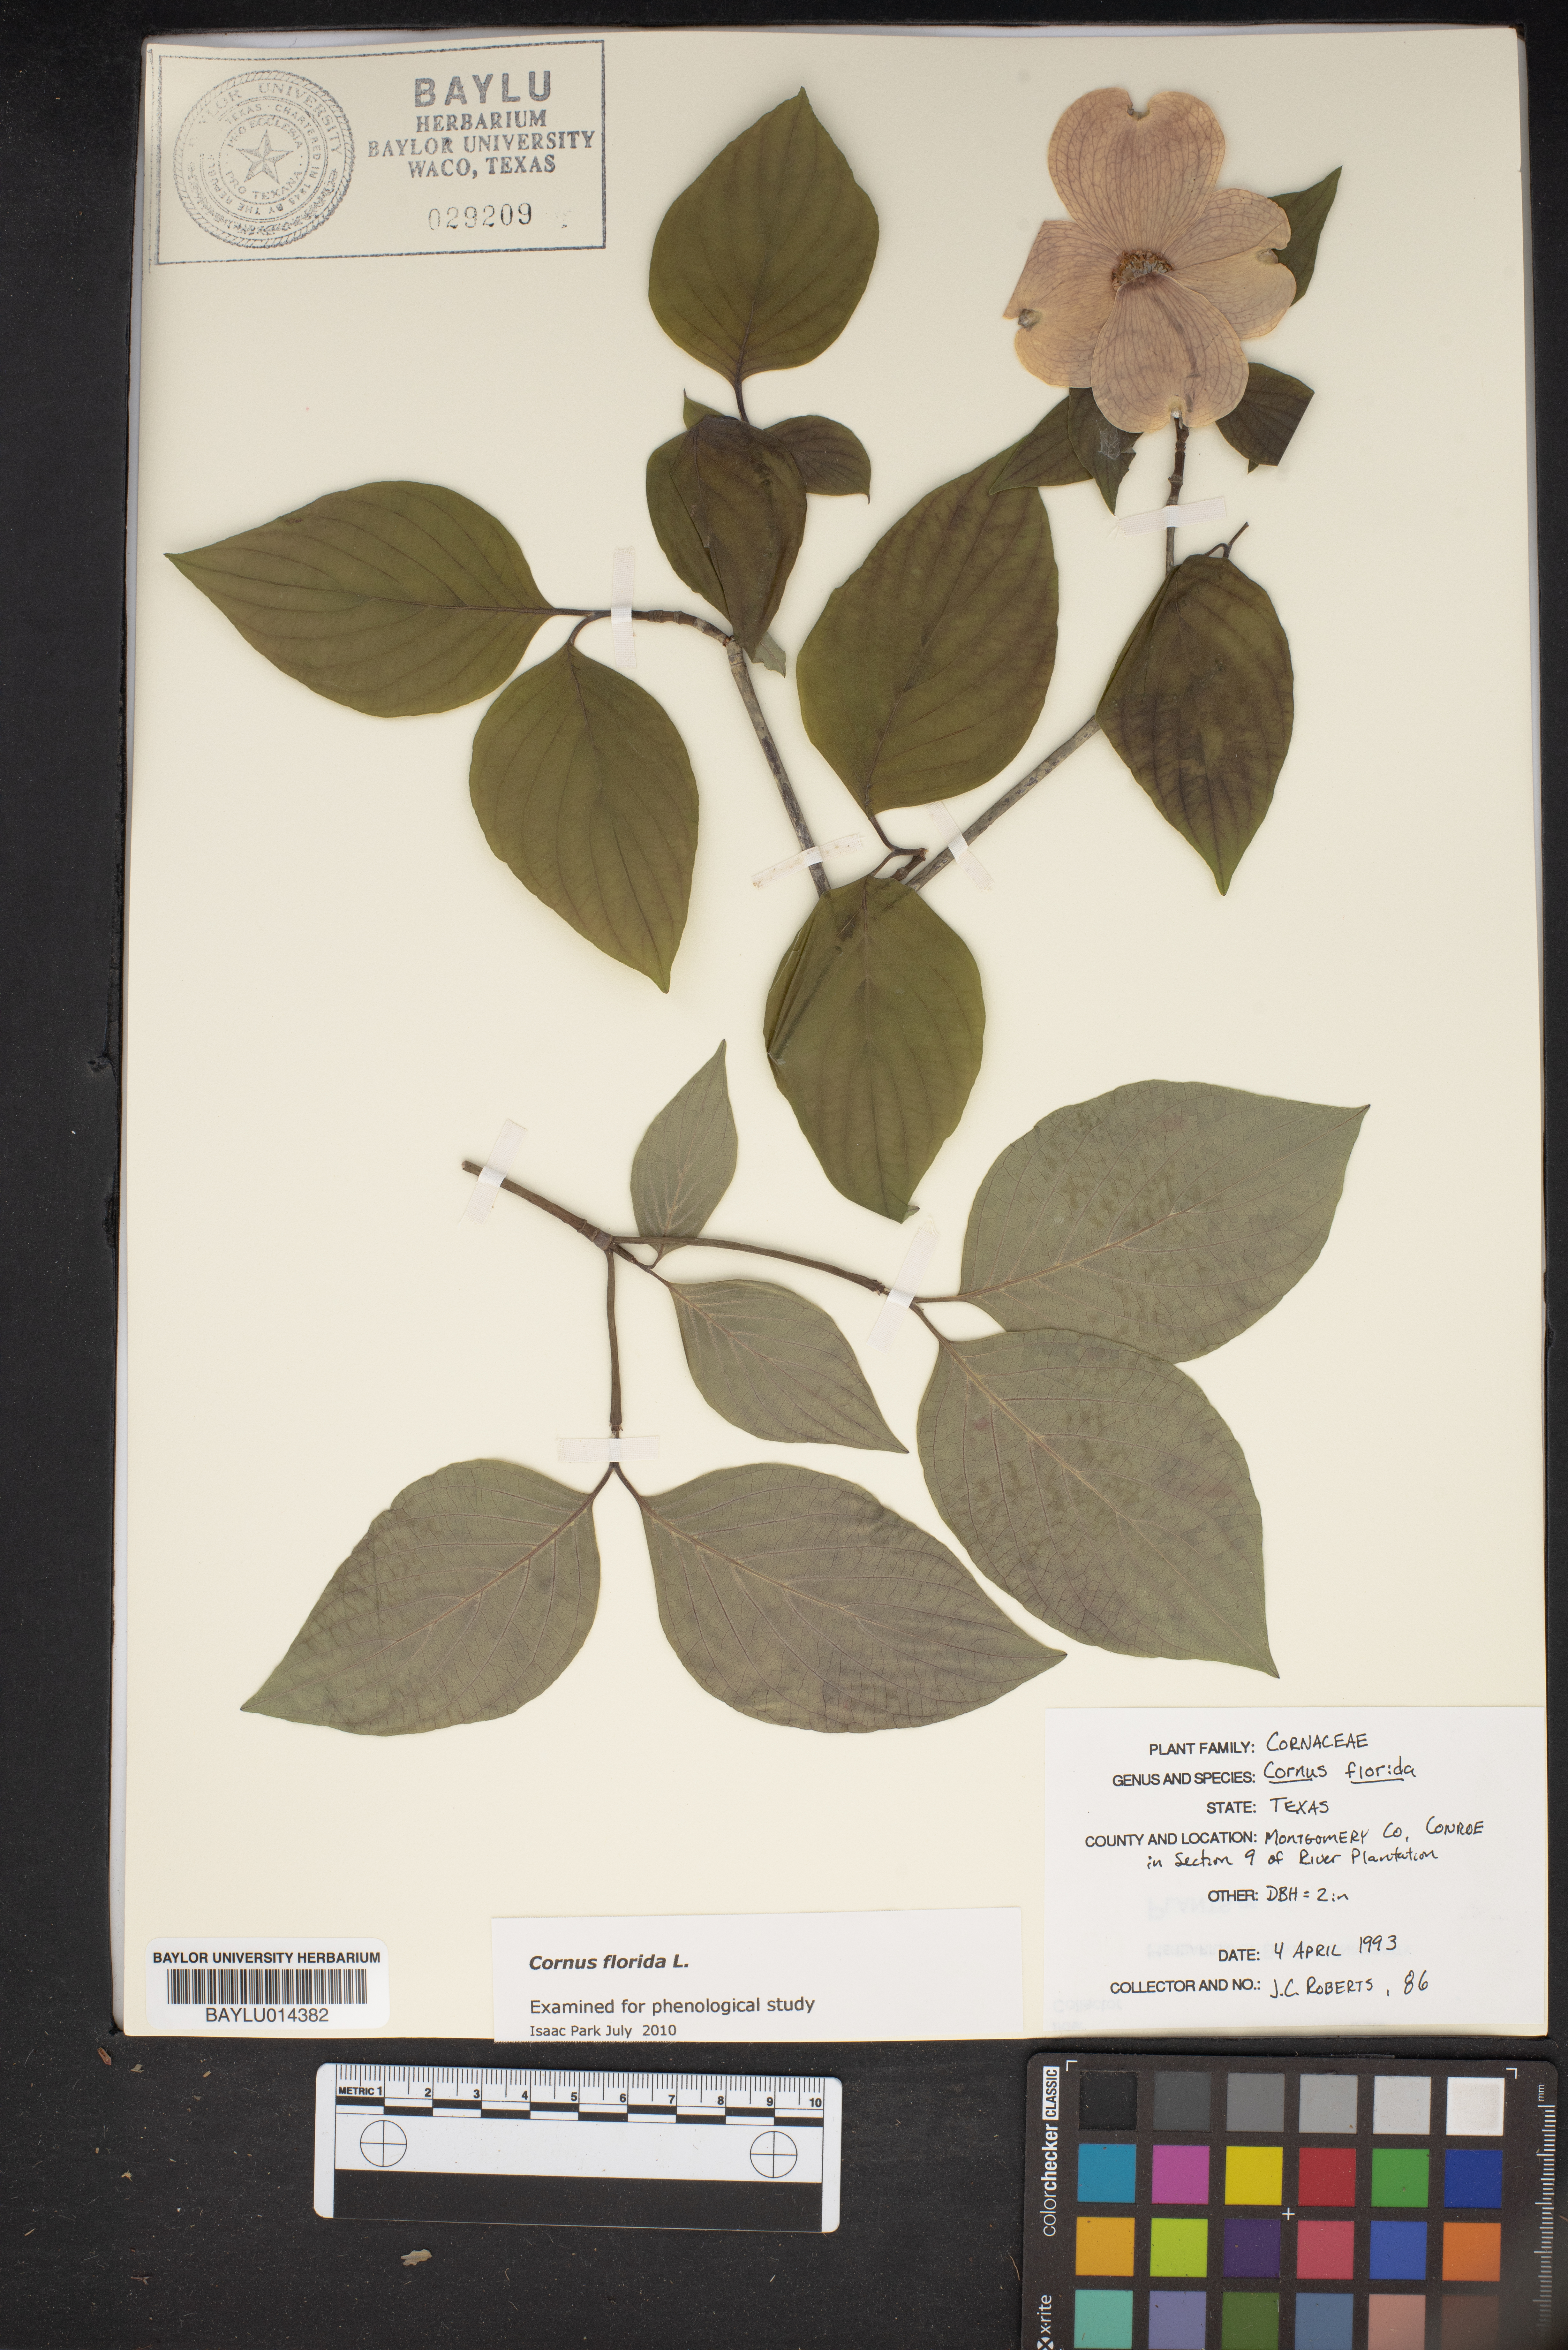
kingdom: Plantae
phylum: Tracheophyta
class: Magnoliopsida
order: Cornales
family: Cornaceae
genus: Cornus
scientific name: Cornus florida
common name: Flowering dogwood
